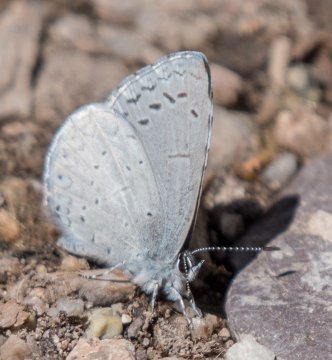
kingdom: Animalia
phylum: Arthropoda
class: Insecta
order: Lepidoptera
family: Lycaenidae
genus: Celastrina
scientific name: Celastrina ladon
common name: Echo Azure
